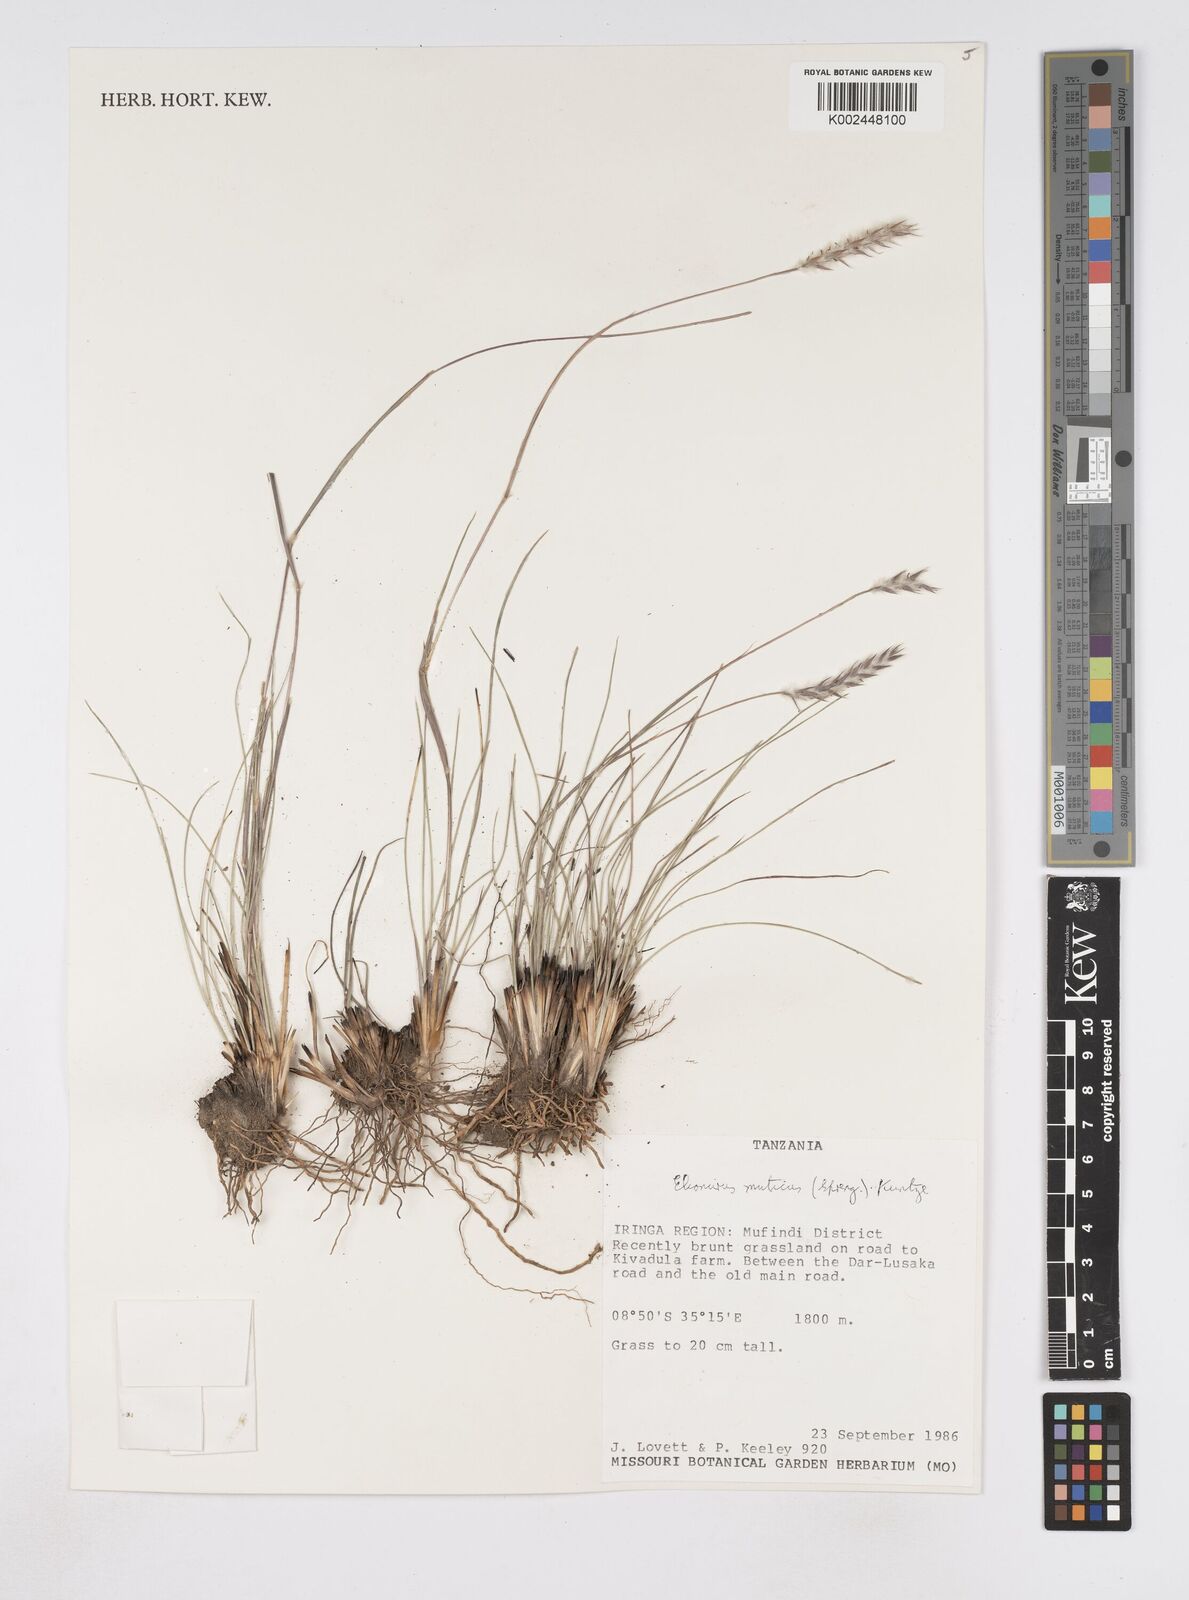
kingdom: Plantae
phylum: Tracheophyta
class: Liliopsida
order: Poales
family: Poaceae
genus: Elionurus
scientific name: Elionurus muticus
